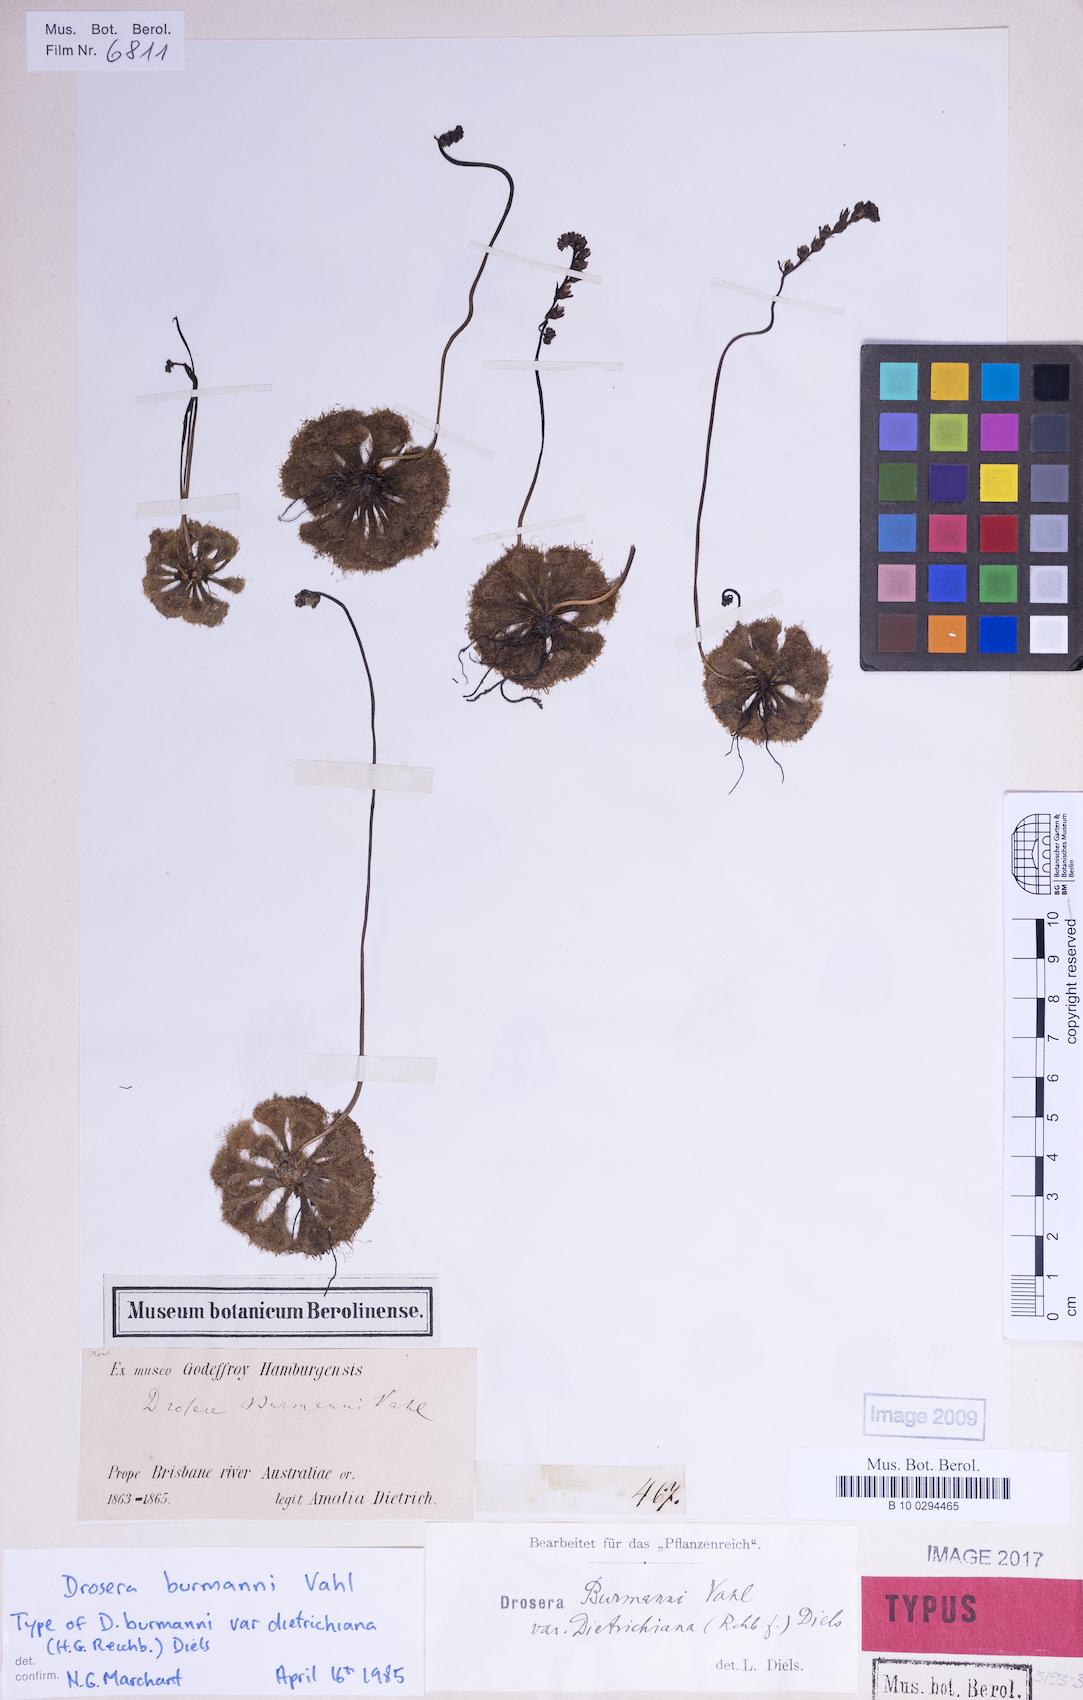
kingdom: Plantae
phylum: Tracheophyta
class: Magnoliopsida
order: Caryophyllales
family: Droseraceae
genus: Drosera
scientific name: Drosera burmannii
